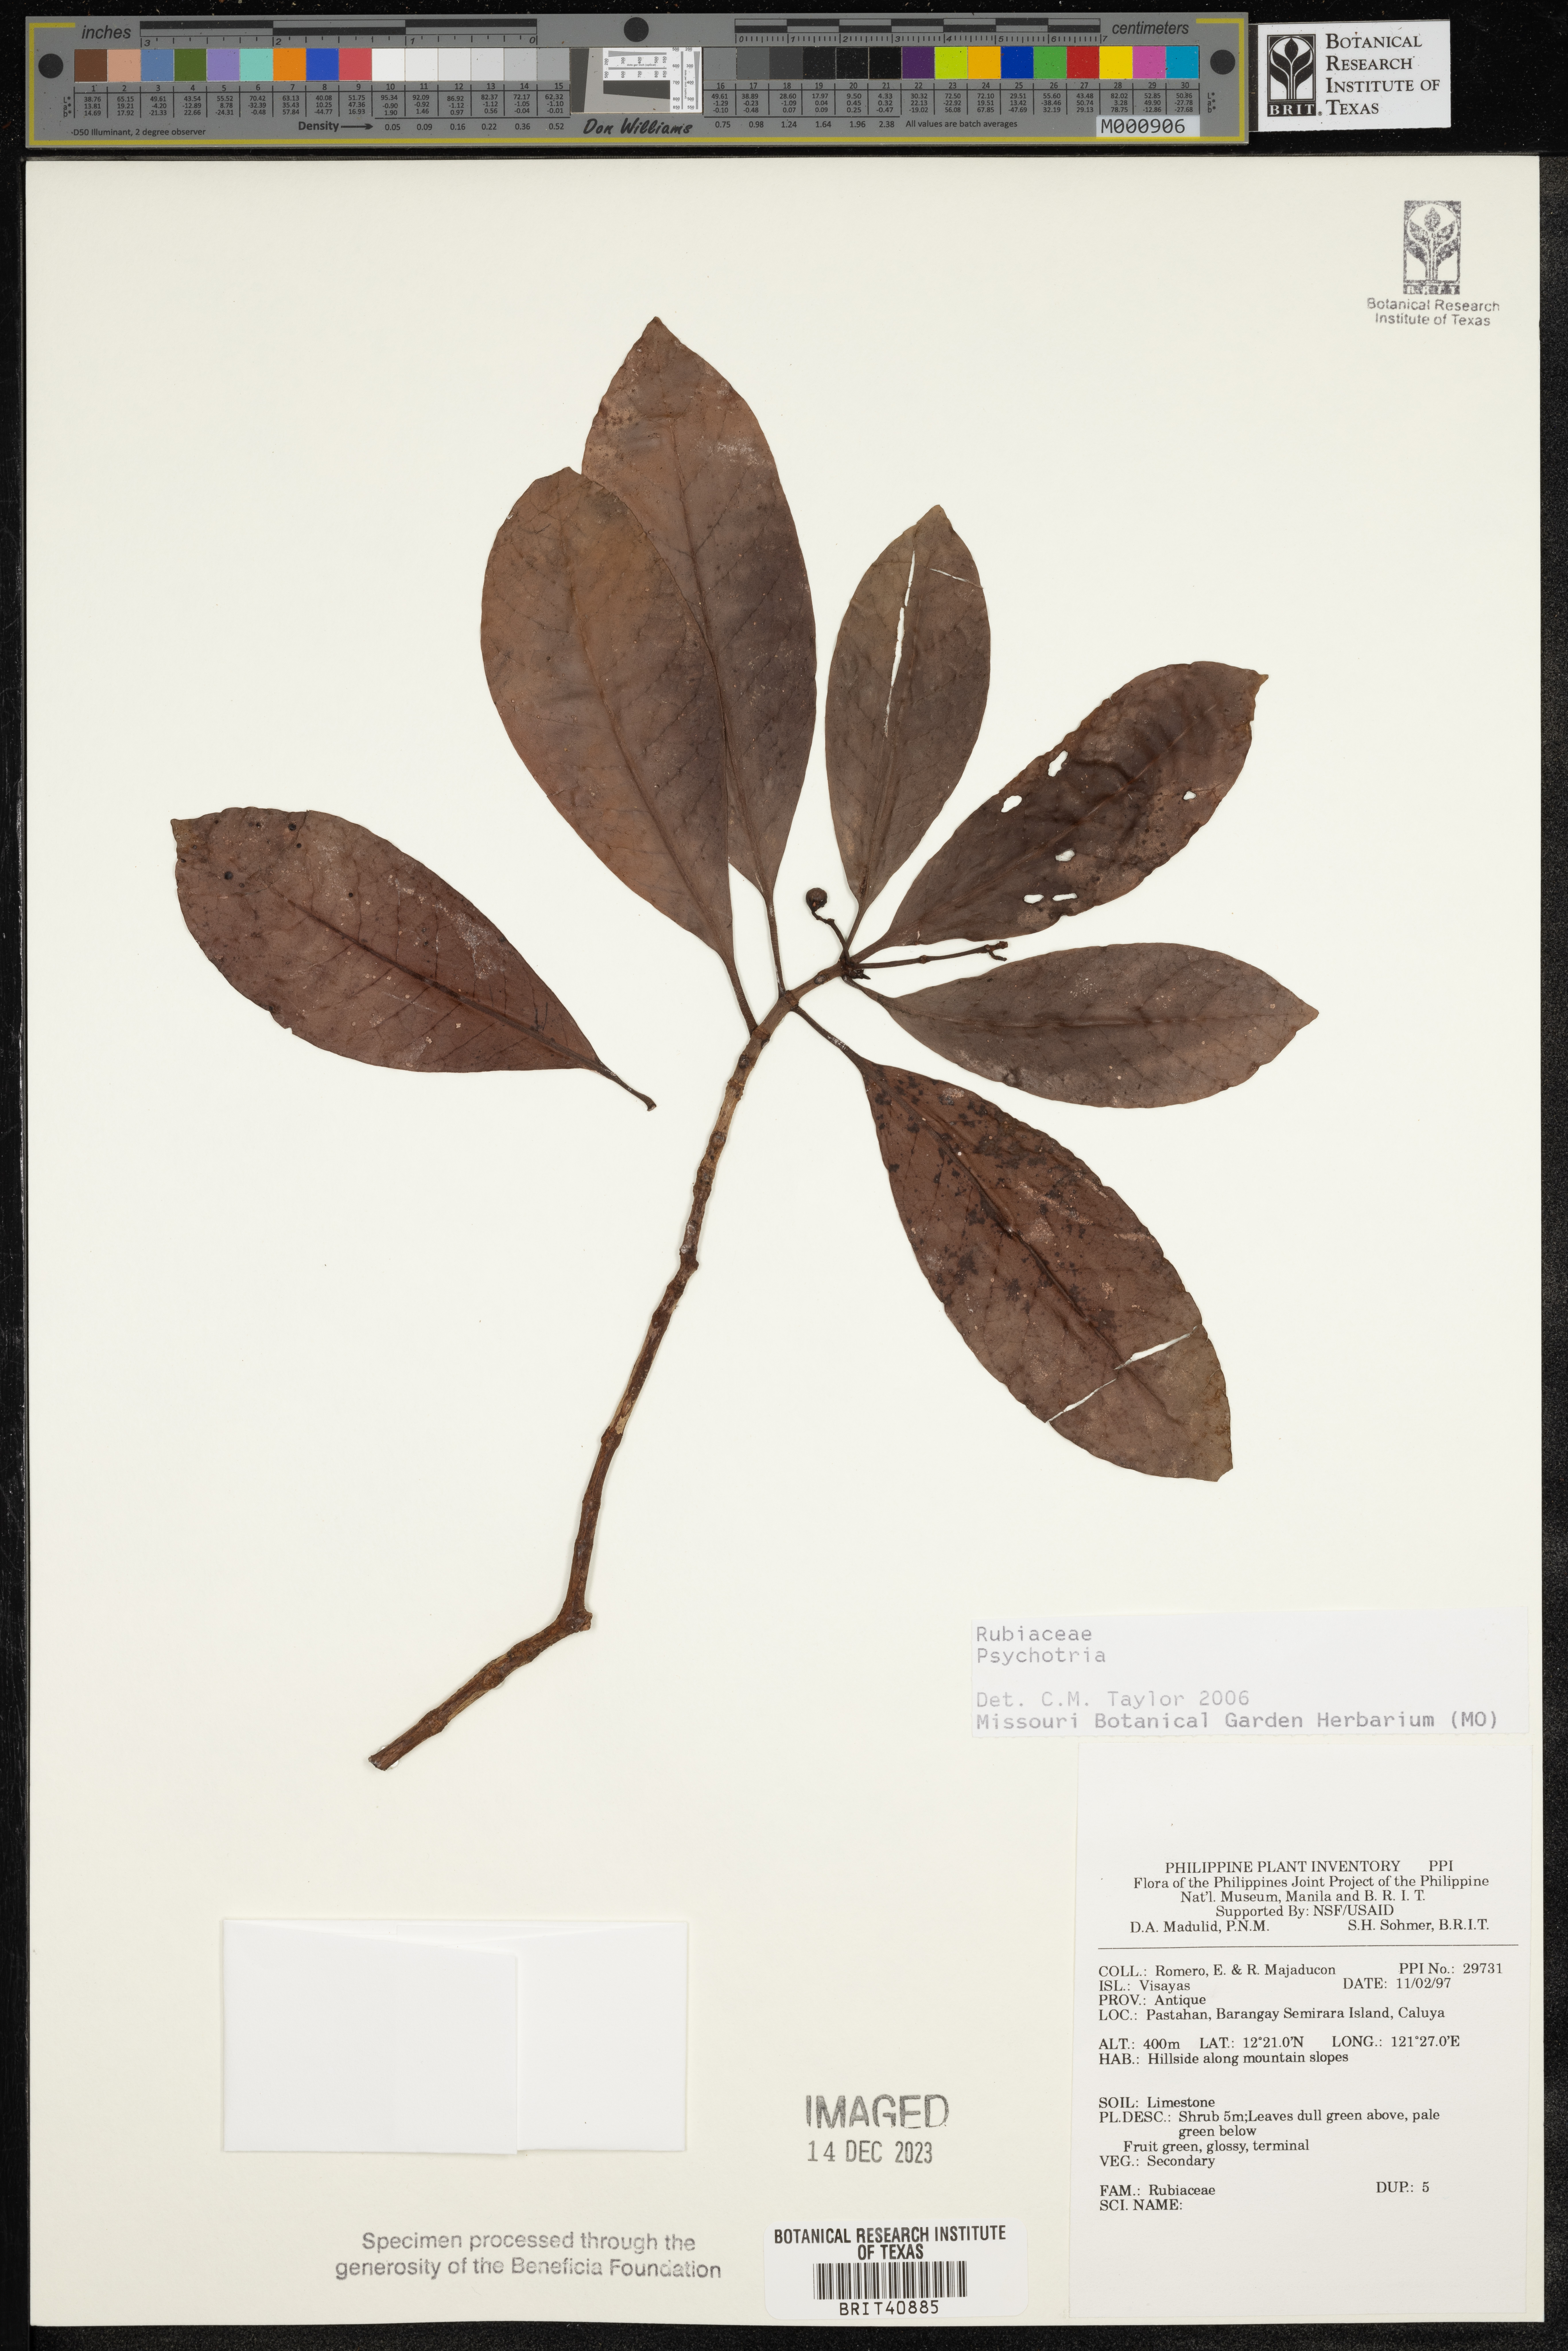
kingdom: Plantae
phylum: Tracheophyta
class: Magnoliopsida
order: Gentianales
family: Rubiaceae
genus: Psychotria
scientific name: Psychotria
